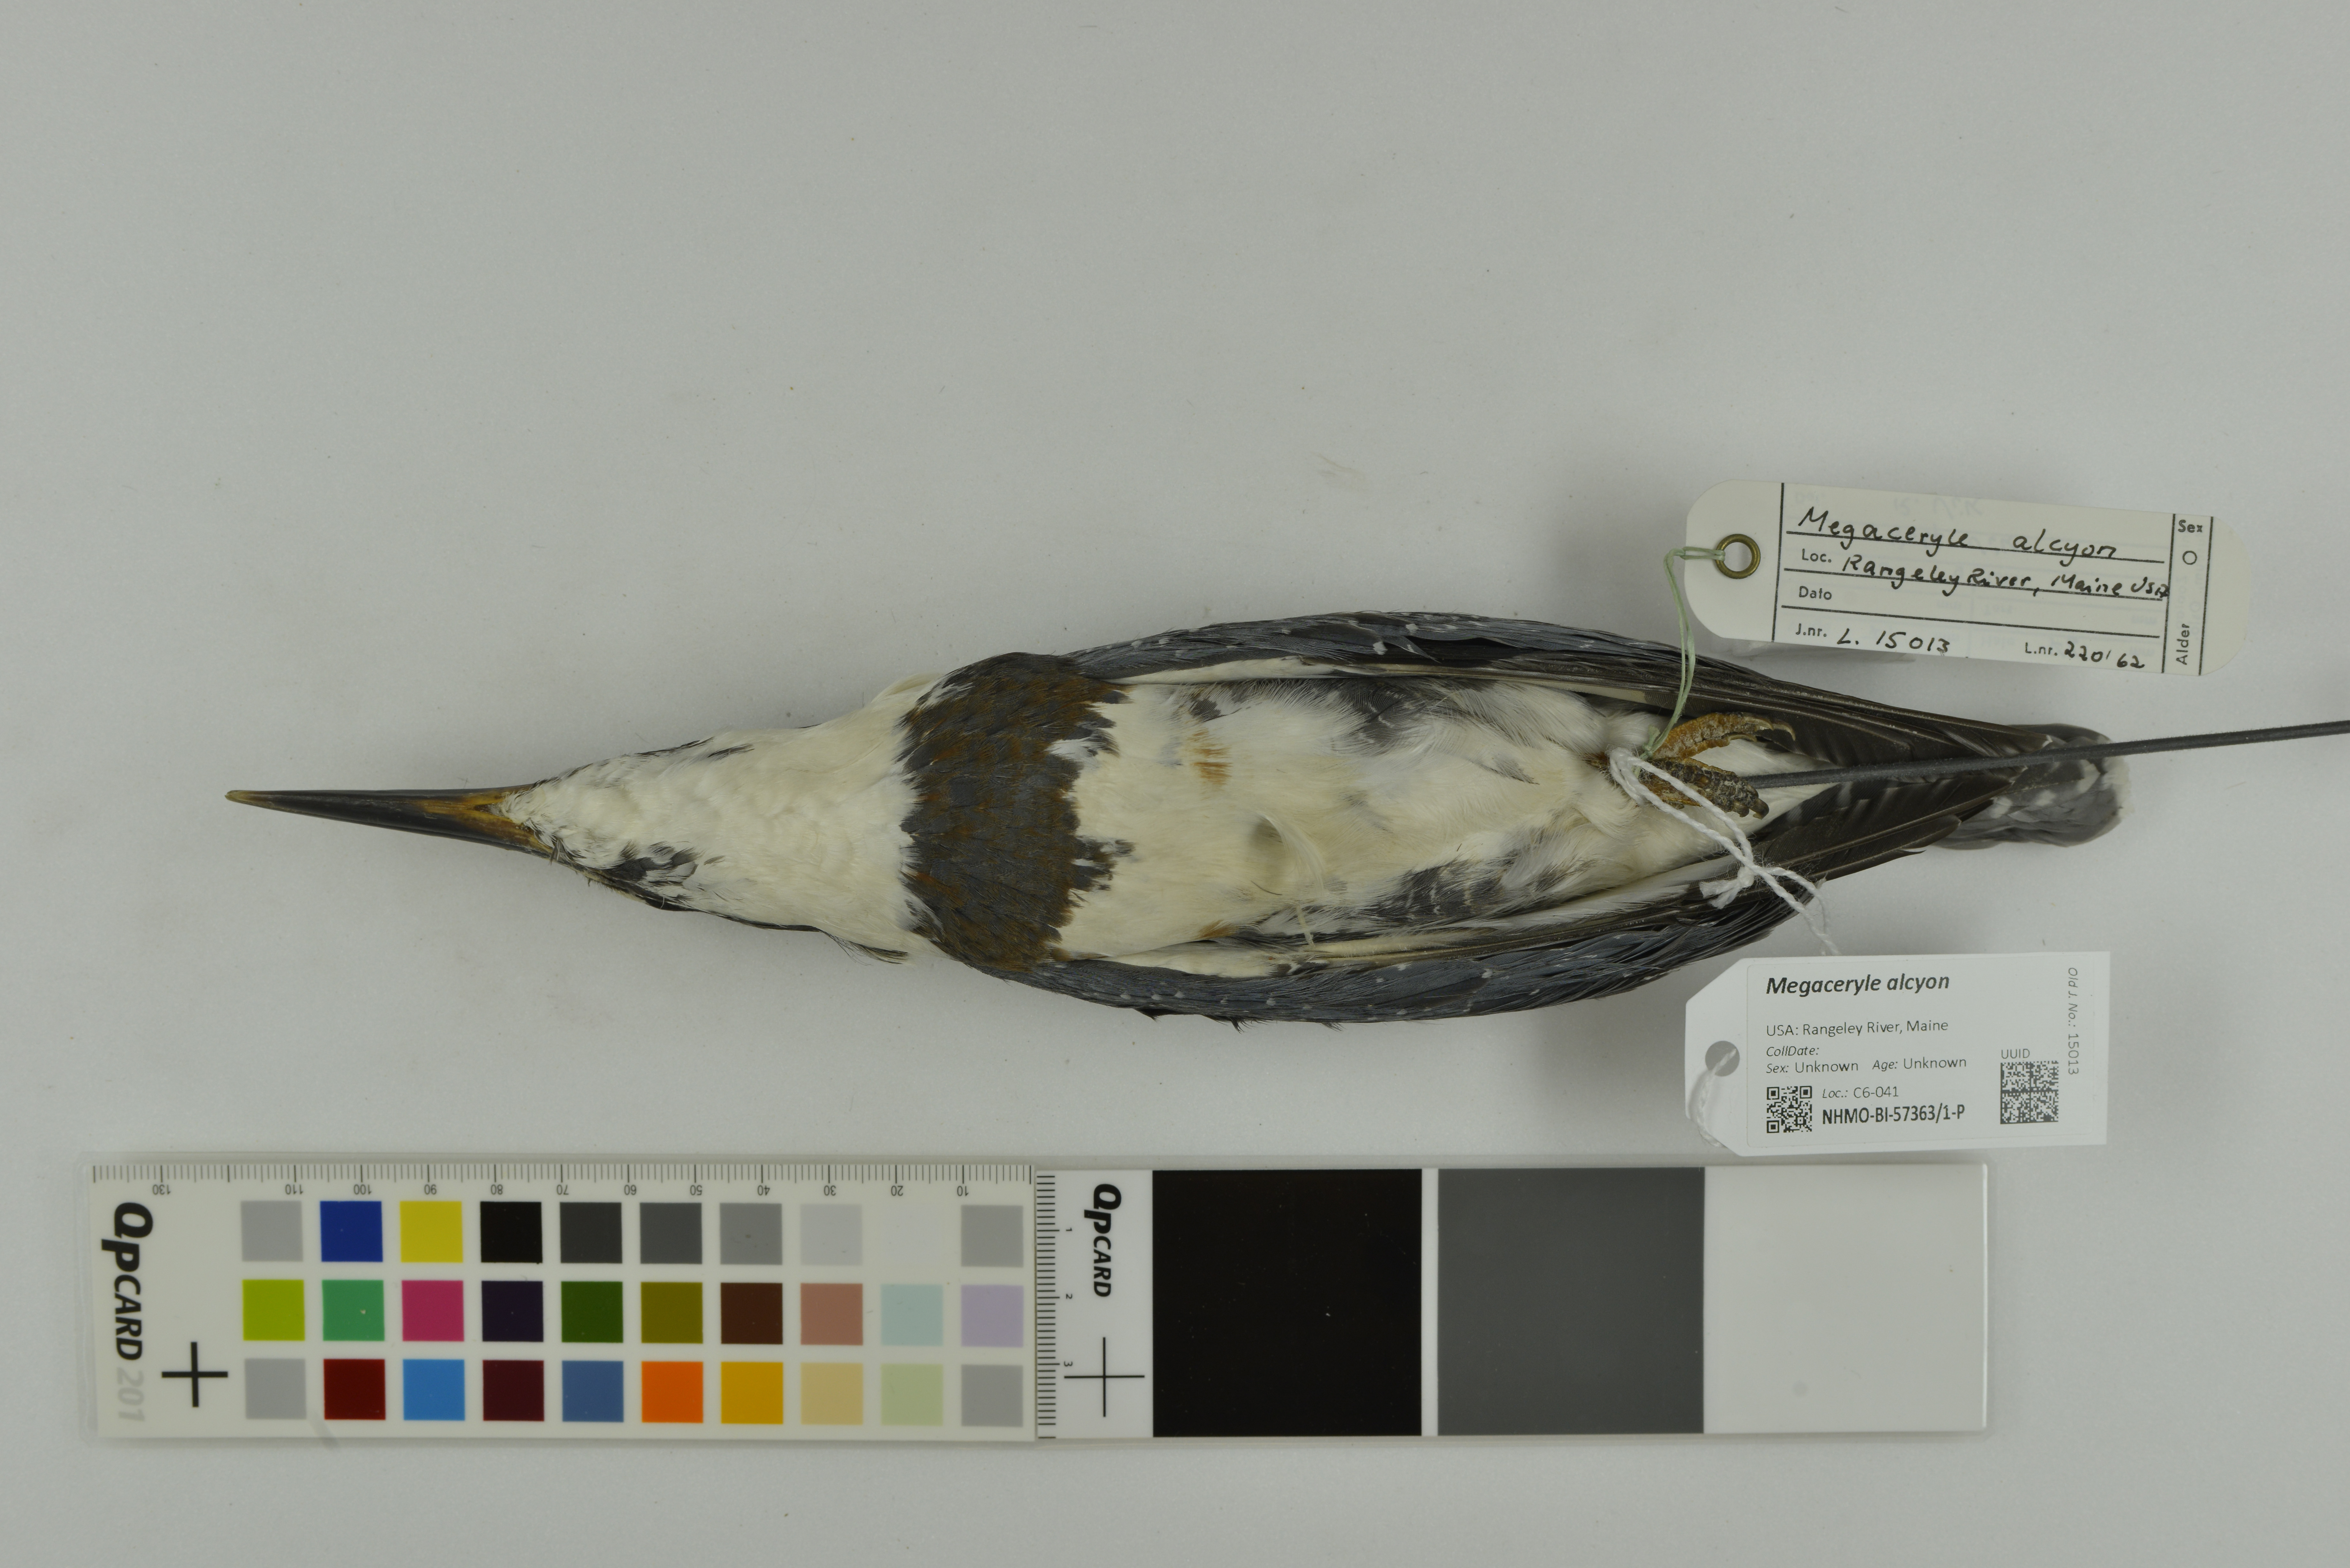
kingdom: Animalia
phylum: Chordata
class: Aves
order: Coraciiformes
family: Alcedinidae
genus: Megaceryle
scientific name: Megaceryle alcyon
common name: Belted kingfisher
